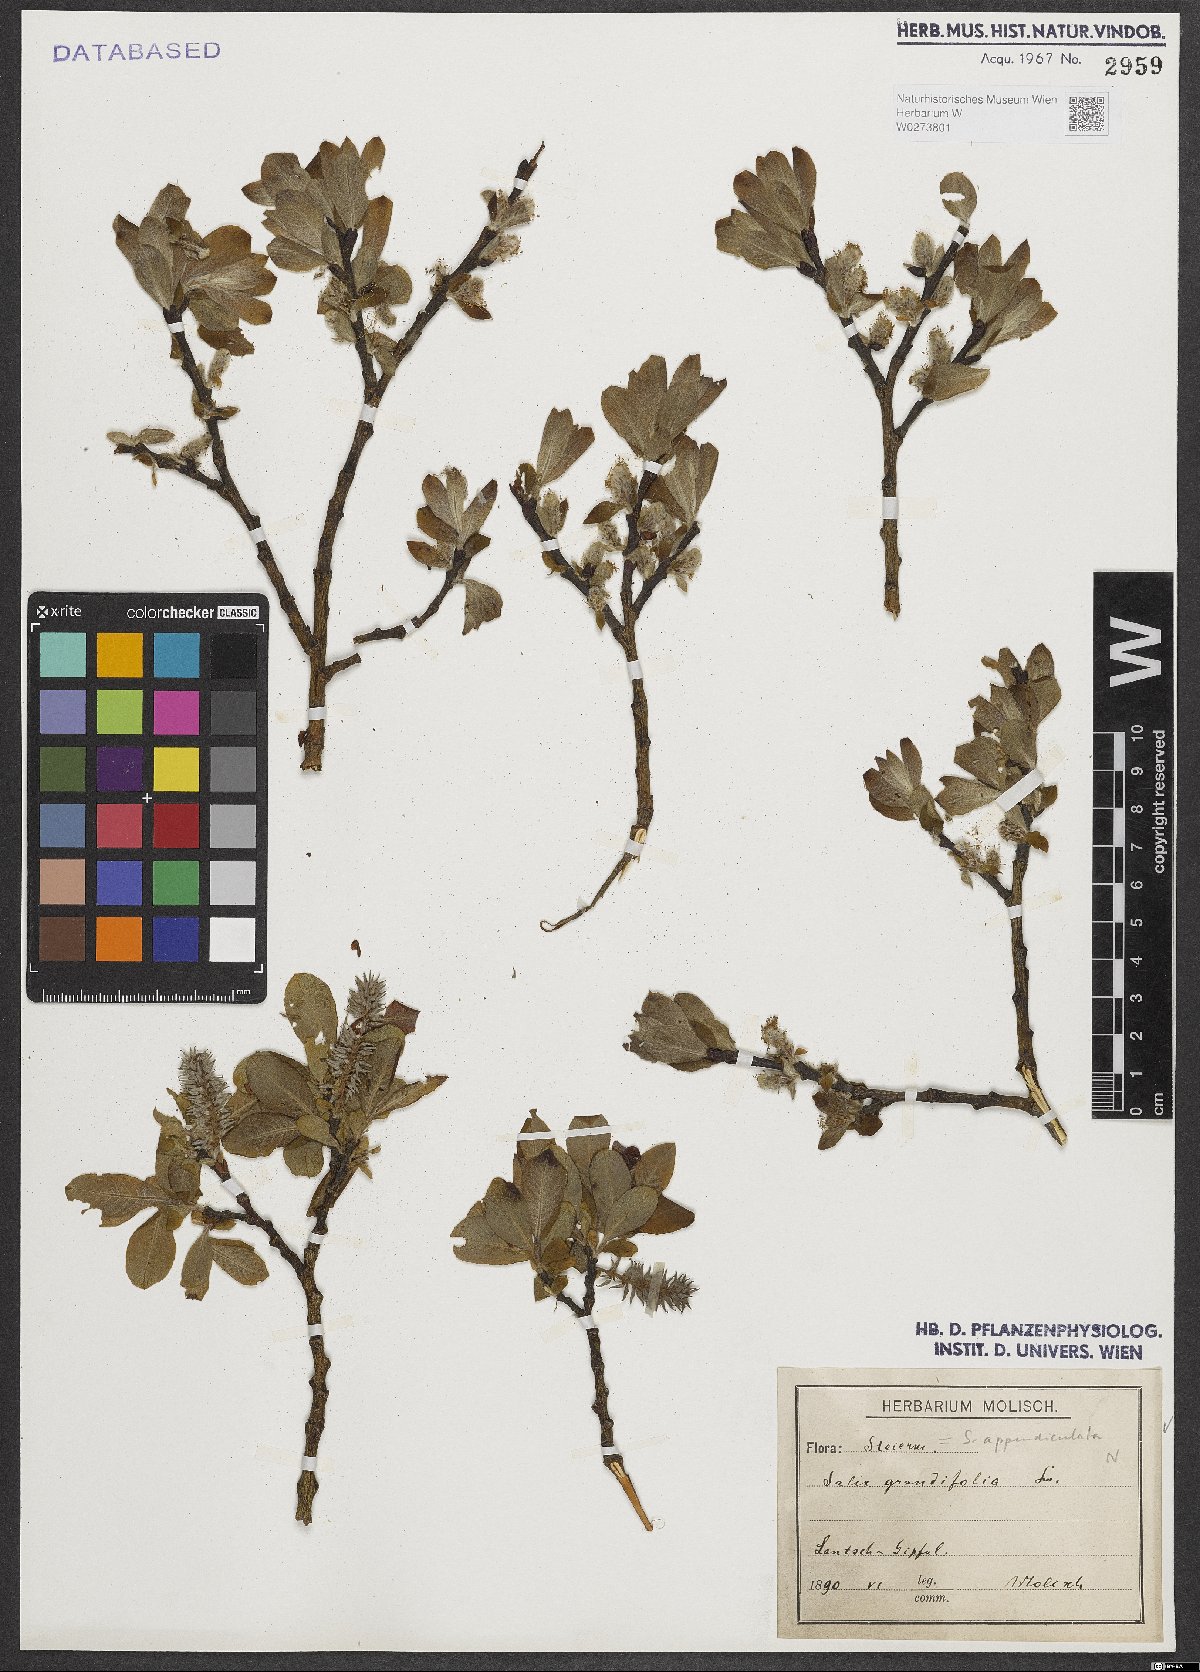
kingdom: Plantae
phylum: Tracheophyta
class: Magnoliopsida
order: Malpighiales
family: Salicaceae
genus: Salix
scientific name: Salix appendiculata
